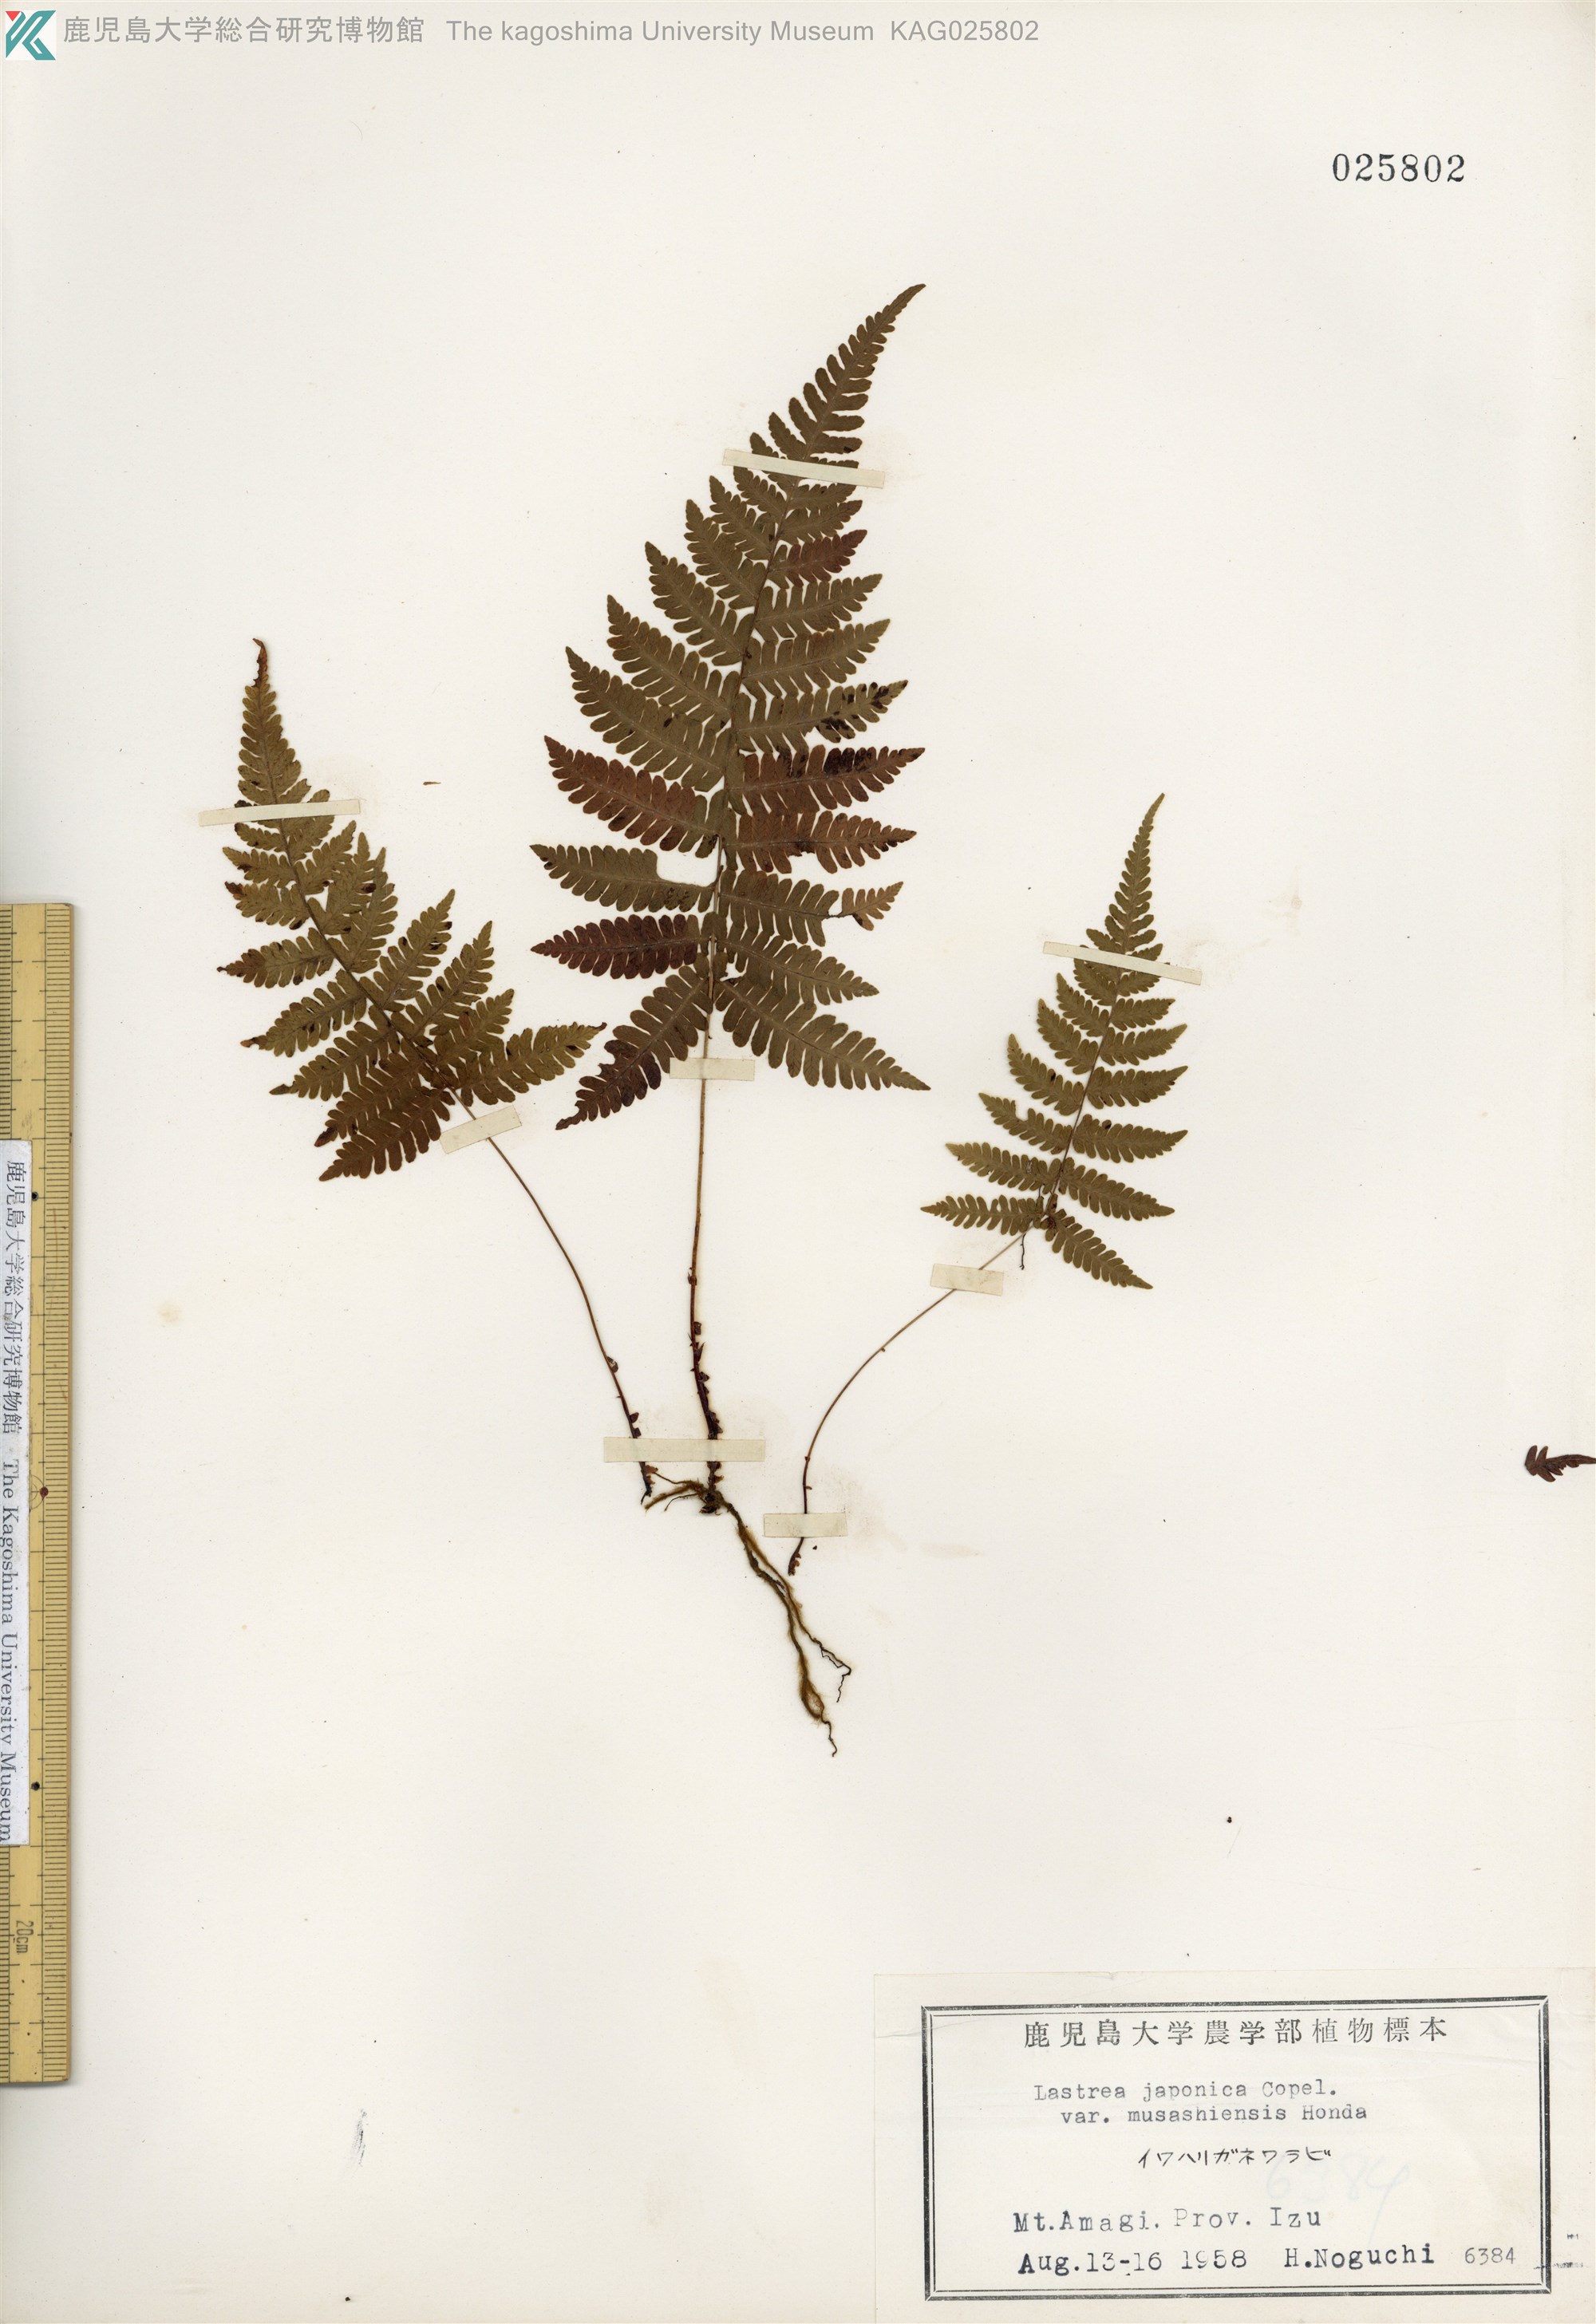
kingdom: Plantae
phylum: Tracheophyta
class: Polypodiopsida
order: Polypodiales
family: Thelypteridaceae
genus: Coryphopteris
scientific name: Coryphopteris japonica
